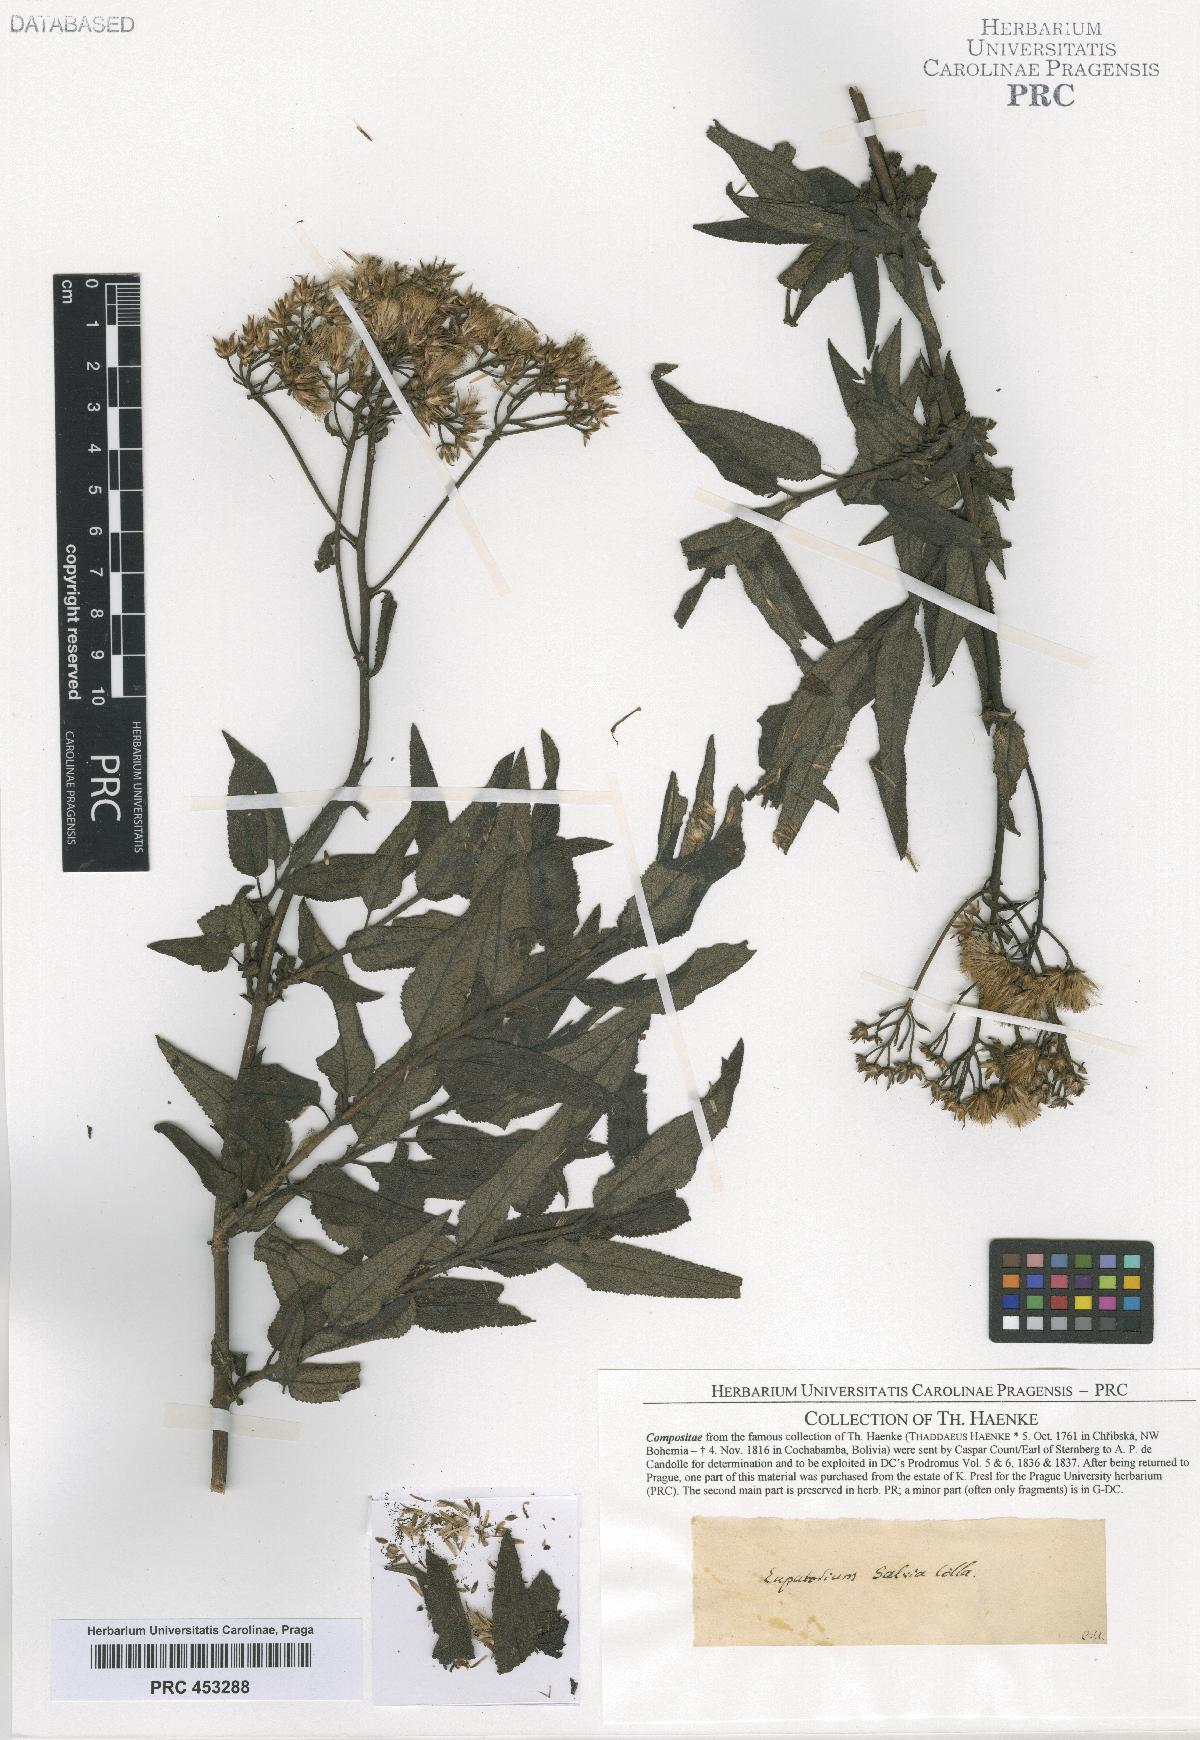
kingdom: Plantae
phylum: Tracheophyta
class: Magnoliopsida
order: Asterales
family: Asteraceae
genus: Eupatorium
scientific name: Eupatorium
